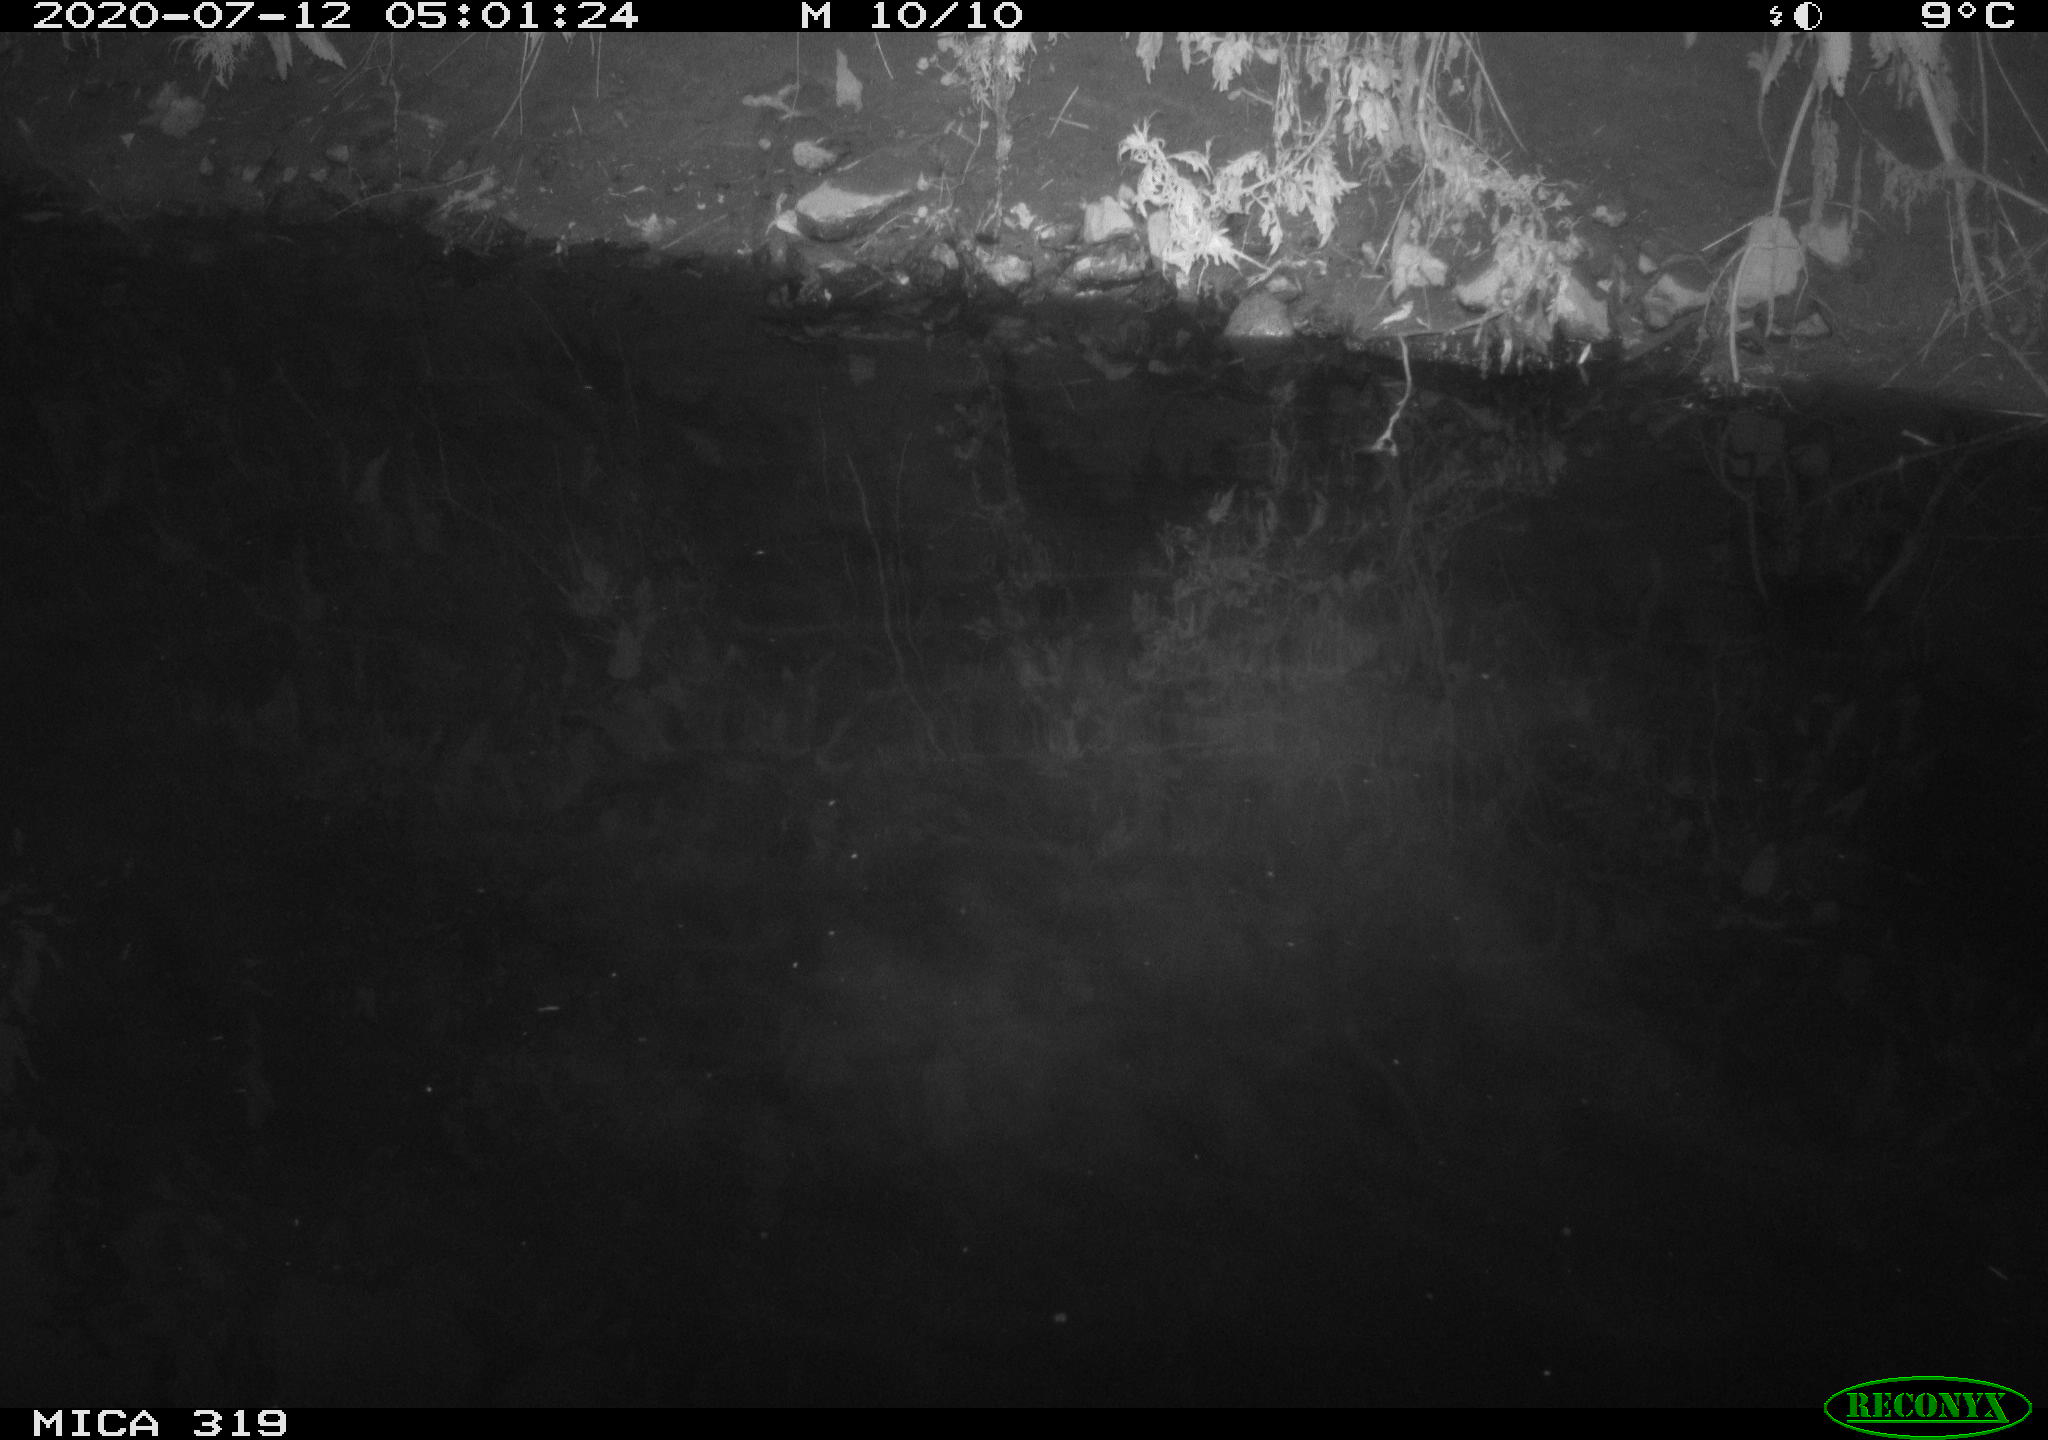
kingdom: Animalia
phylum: Chordata
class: Aves
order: Anseriformes
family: Anatidae
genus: Anas
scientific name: Anas platyrhynchos
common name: Mallard
